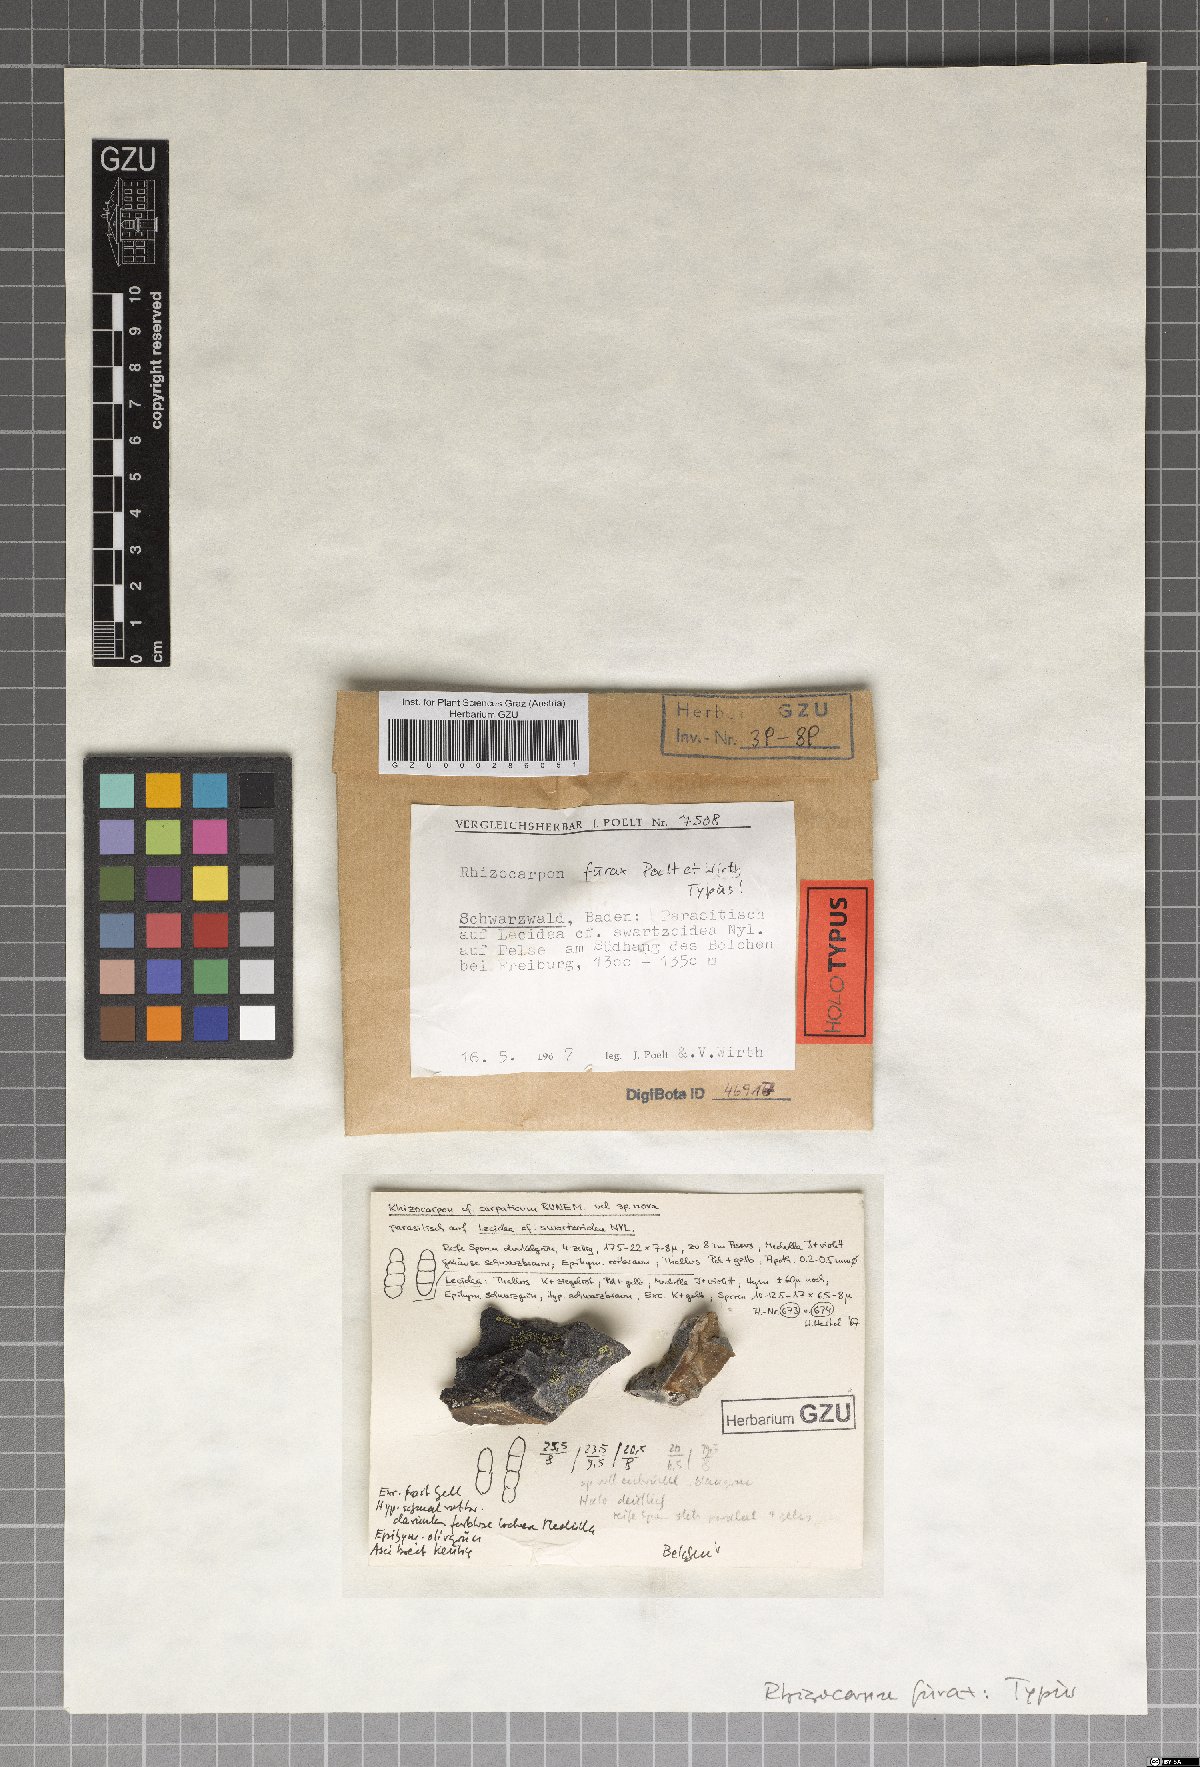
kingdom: Fungi
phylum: Ascomycota
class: Lecanoromycetes
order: Rhizocarpales
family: Rhizocarpaceae
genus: Rhizocarpon
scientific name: Rhizocarpon furax
